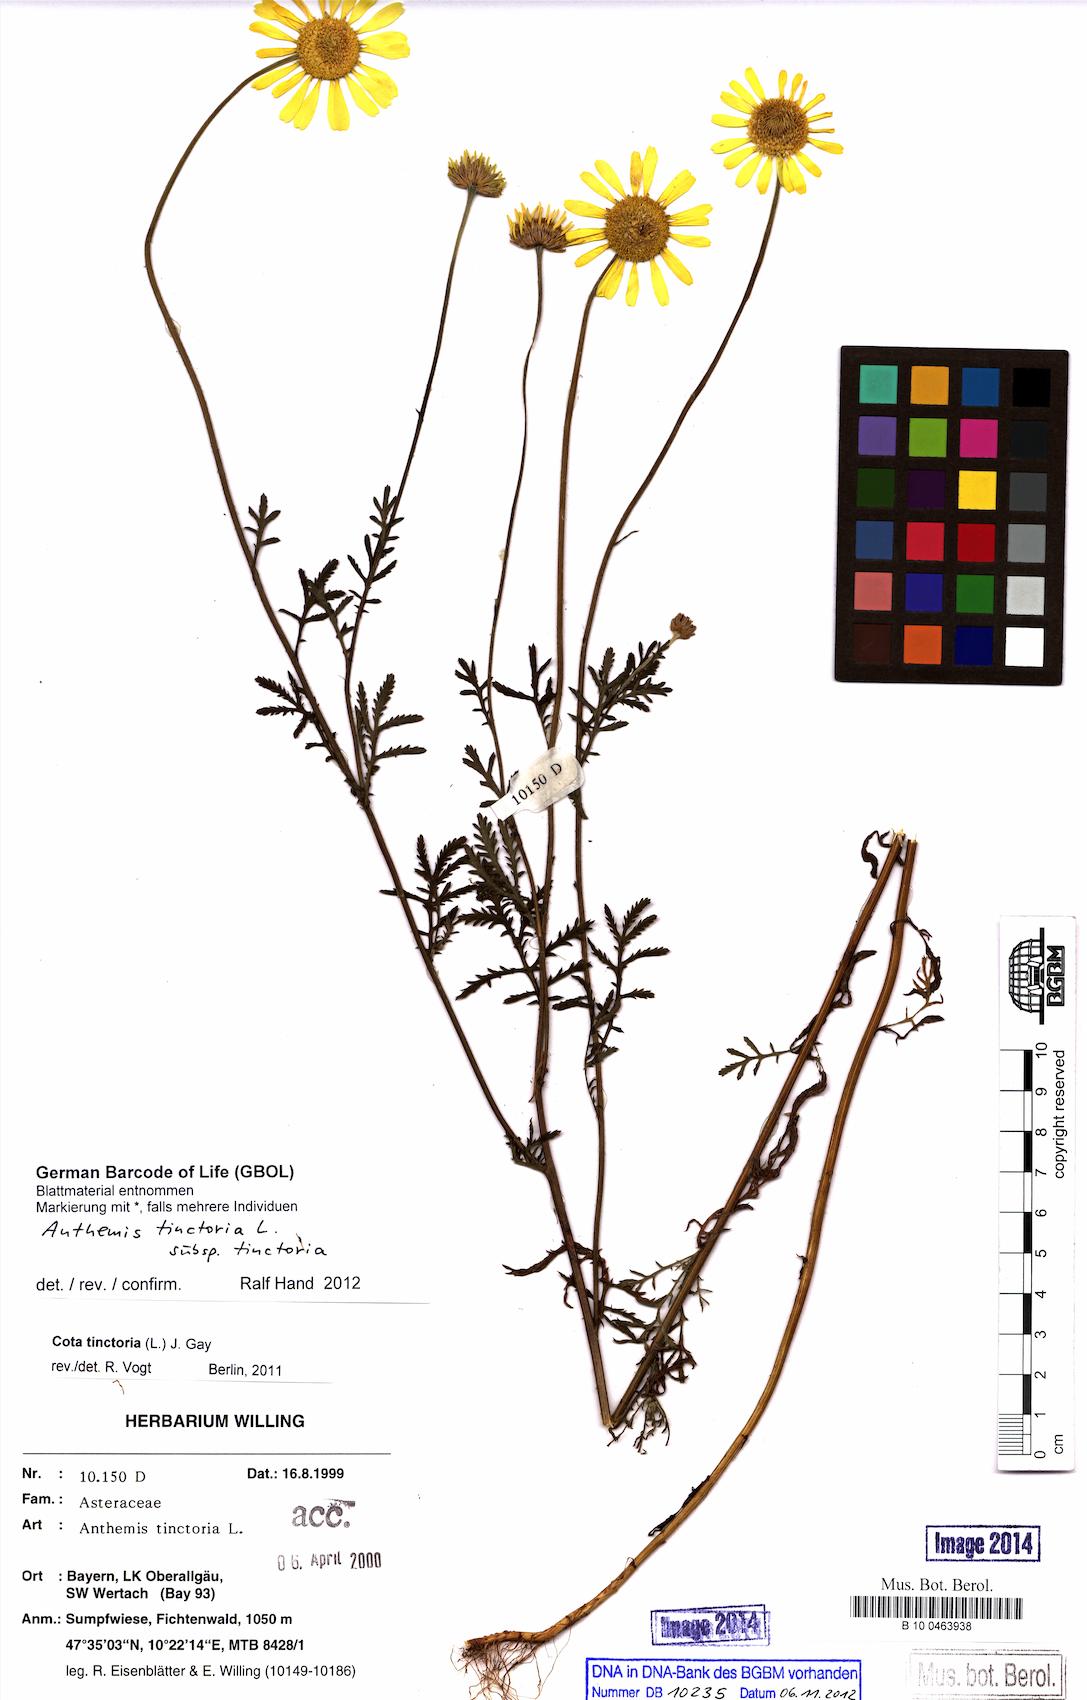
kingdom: Plantae
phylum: Tracheophyta
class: Magnoliopsida
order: Asterales
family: Asteraceae
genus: Cota
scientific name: Cota tinctoria
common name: Golden chamomile
